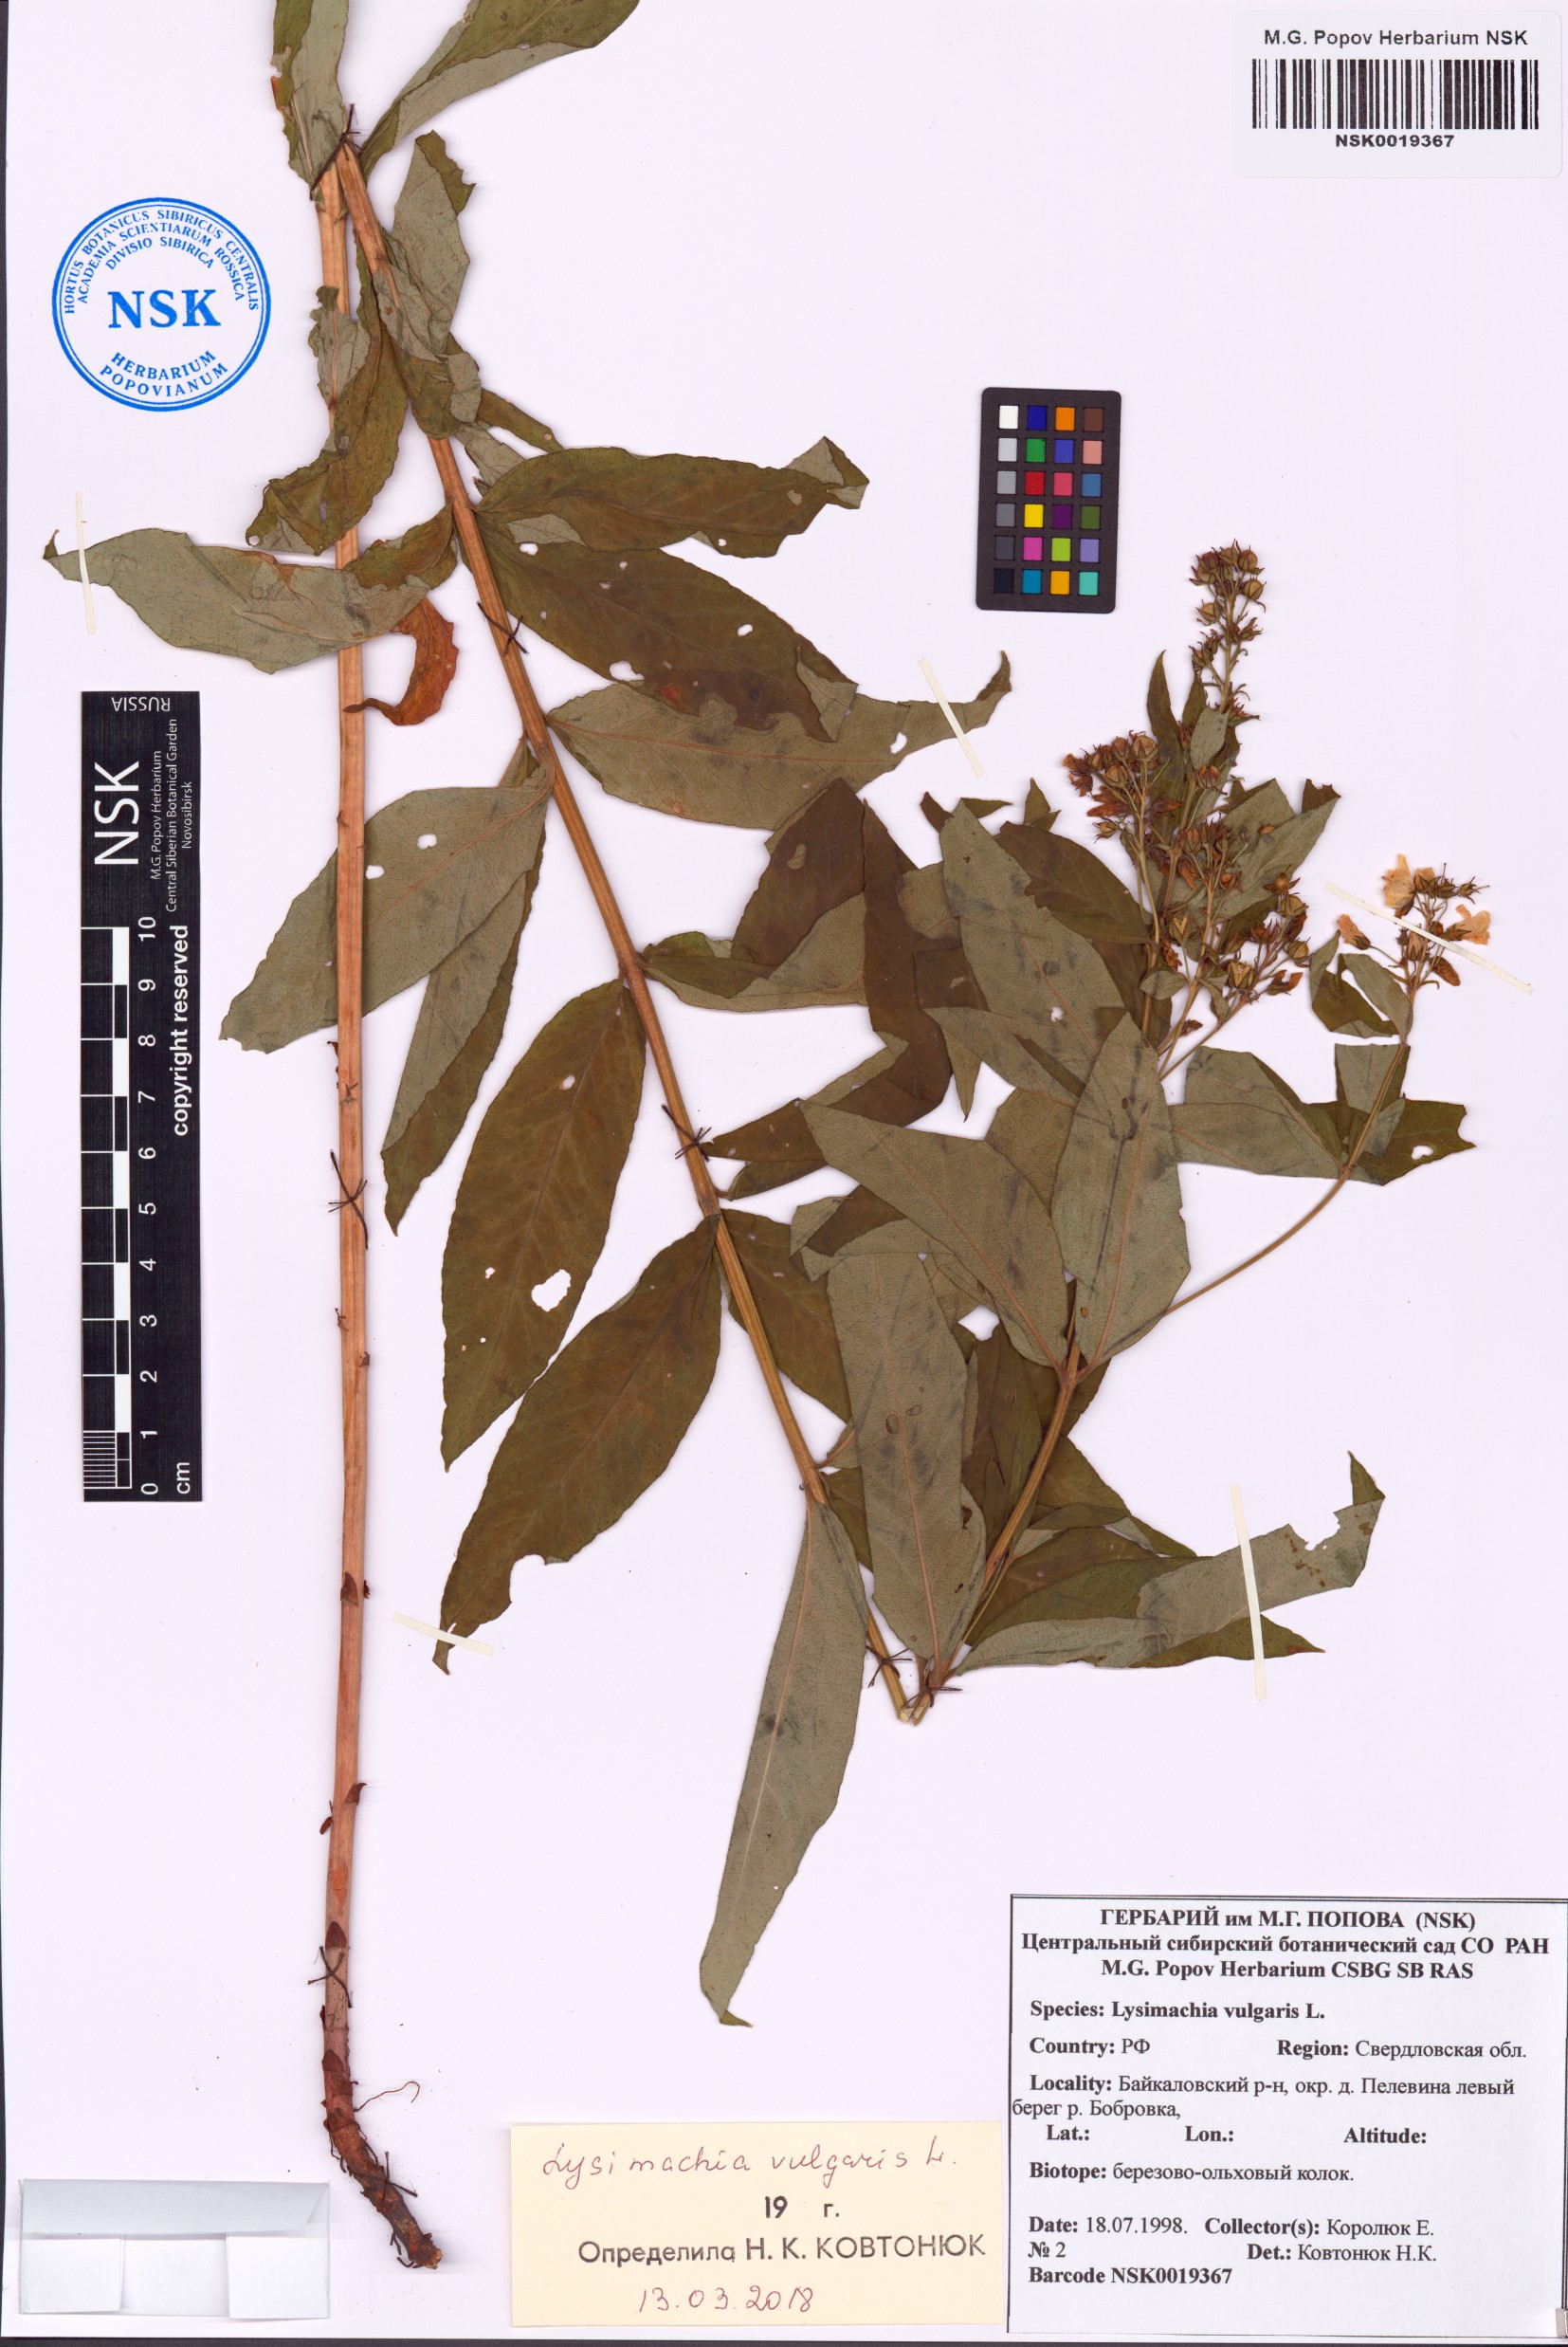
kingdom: Plantae
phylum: Tracheophyta
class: Magnoliopsida
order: Ericales
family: Primulaceae
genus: Lysimachia
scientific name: Lysimachia vulgaris
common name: Yellow loosestrife
